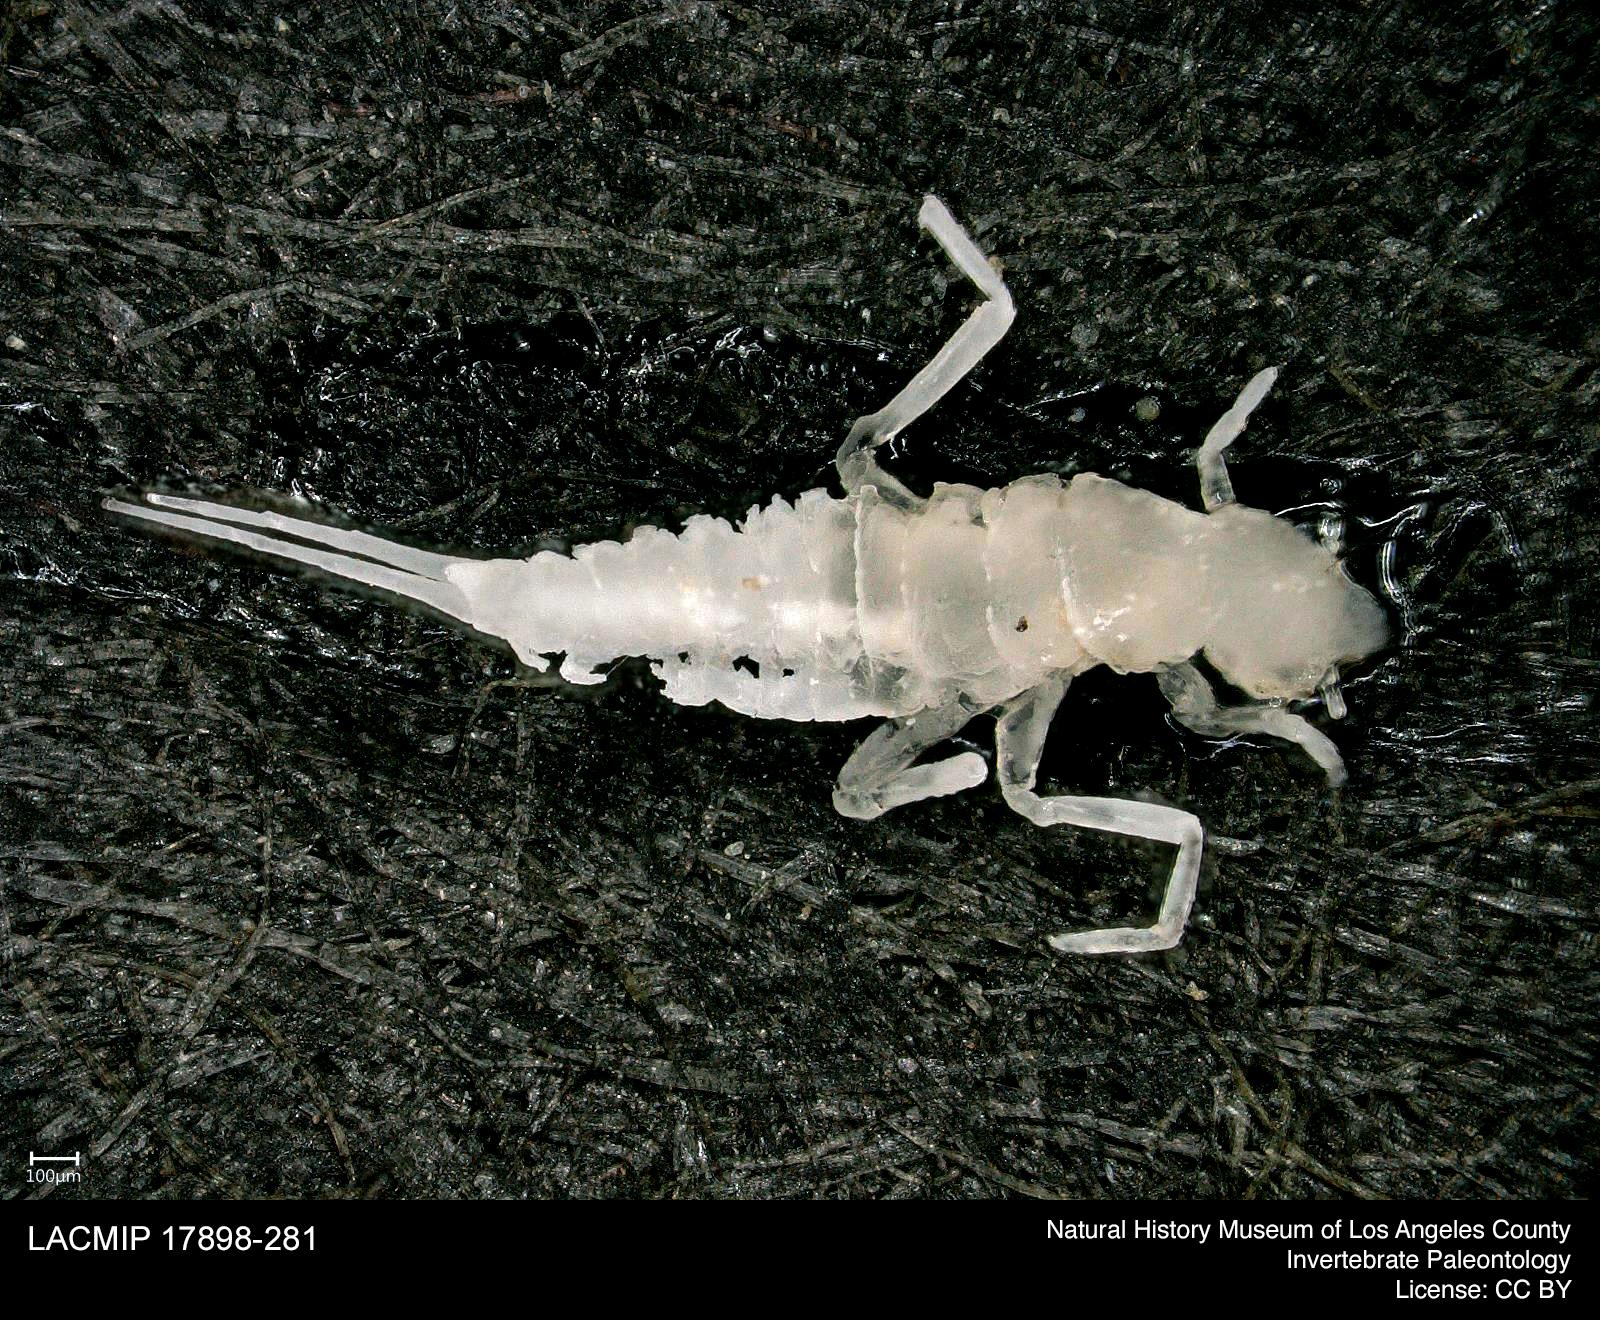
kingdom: Animalia
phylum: Arthropoda
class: Insecta
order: Coleoptera
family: Dytiscidae
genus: Schistomerus
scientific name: Schistomerus californense
